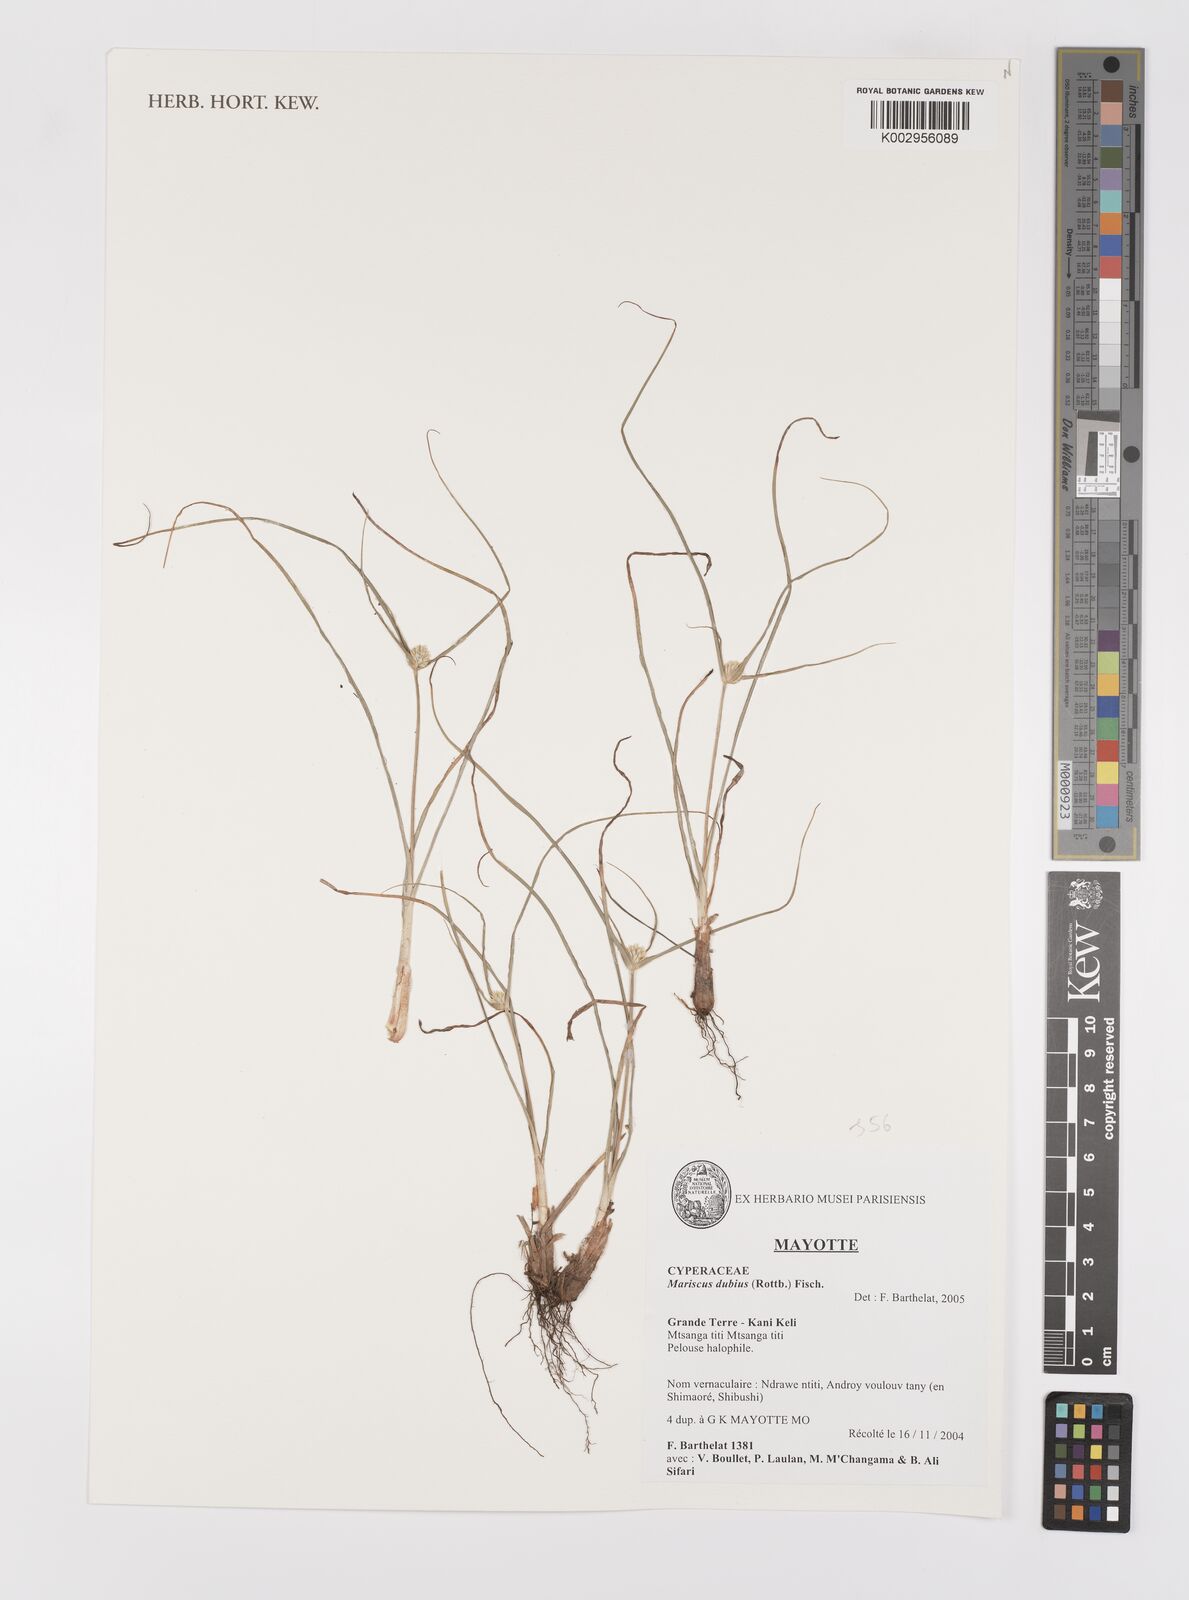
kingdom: Plantae
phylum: Tracheophyta
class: Liliopsida
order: Poales
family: Cyperaceae
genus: Cyperus
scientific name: Cyperus dubius
